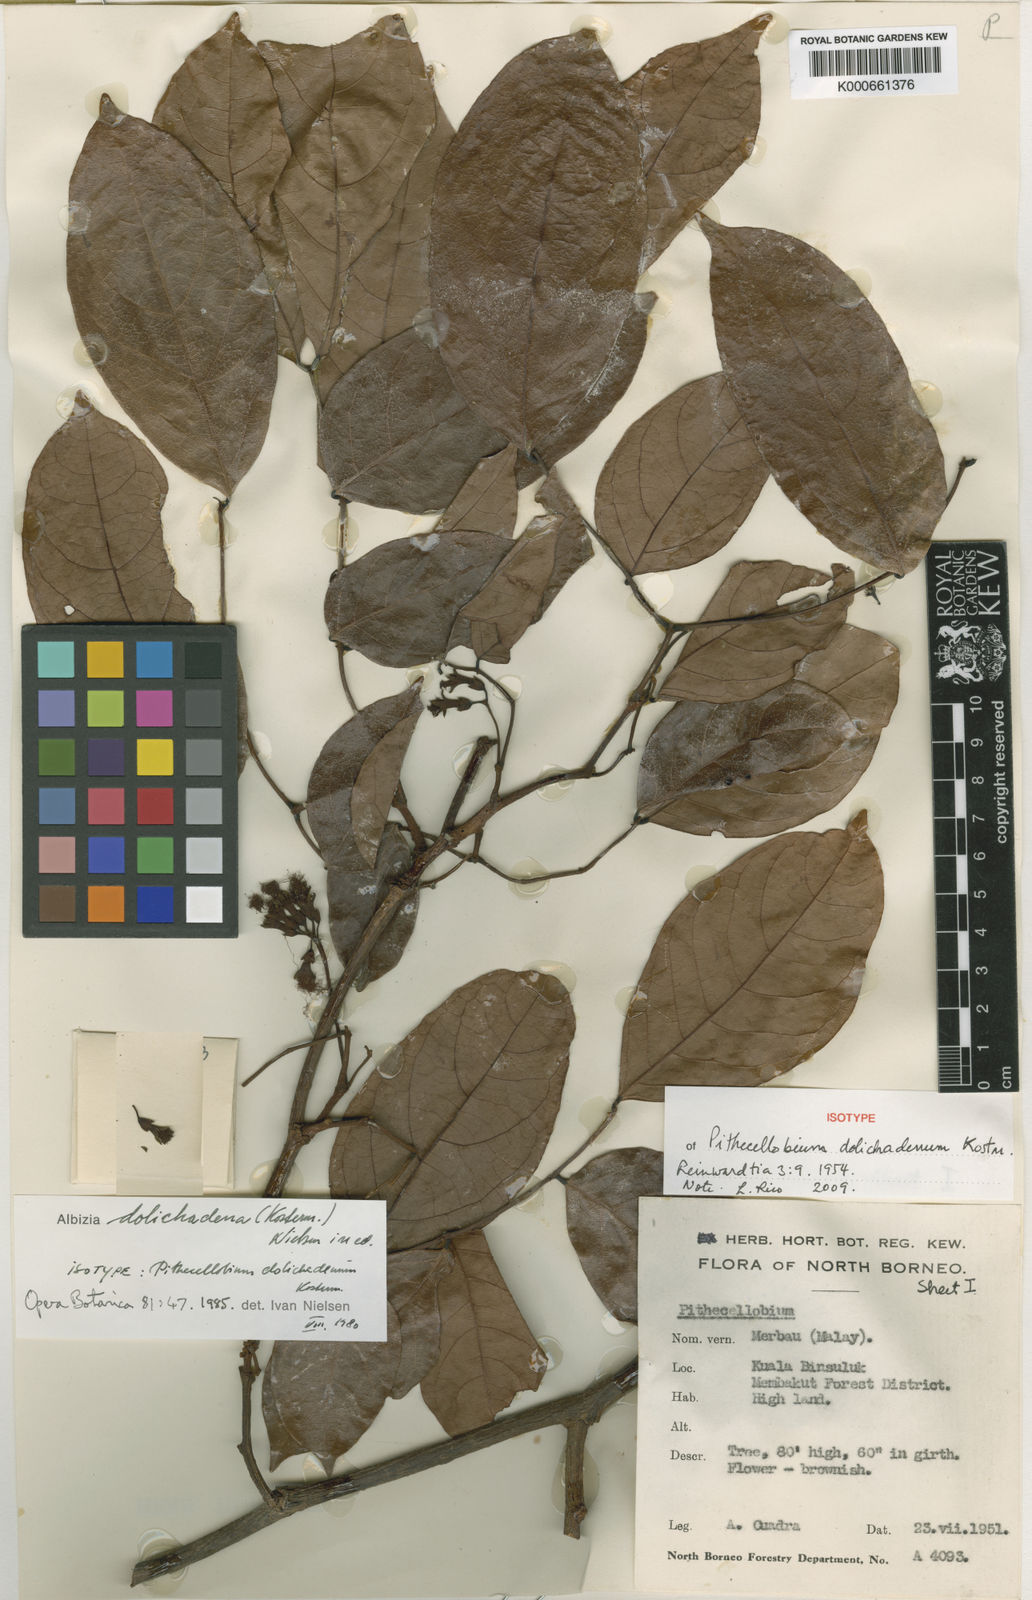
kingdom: Plantae
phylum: Tracheophyta
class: Magnoliopsida
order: Fabales
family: Fabaceae
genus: Albizia
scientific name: Albizia dolichadena
